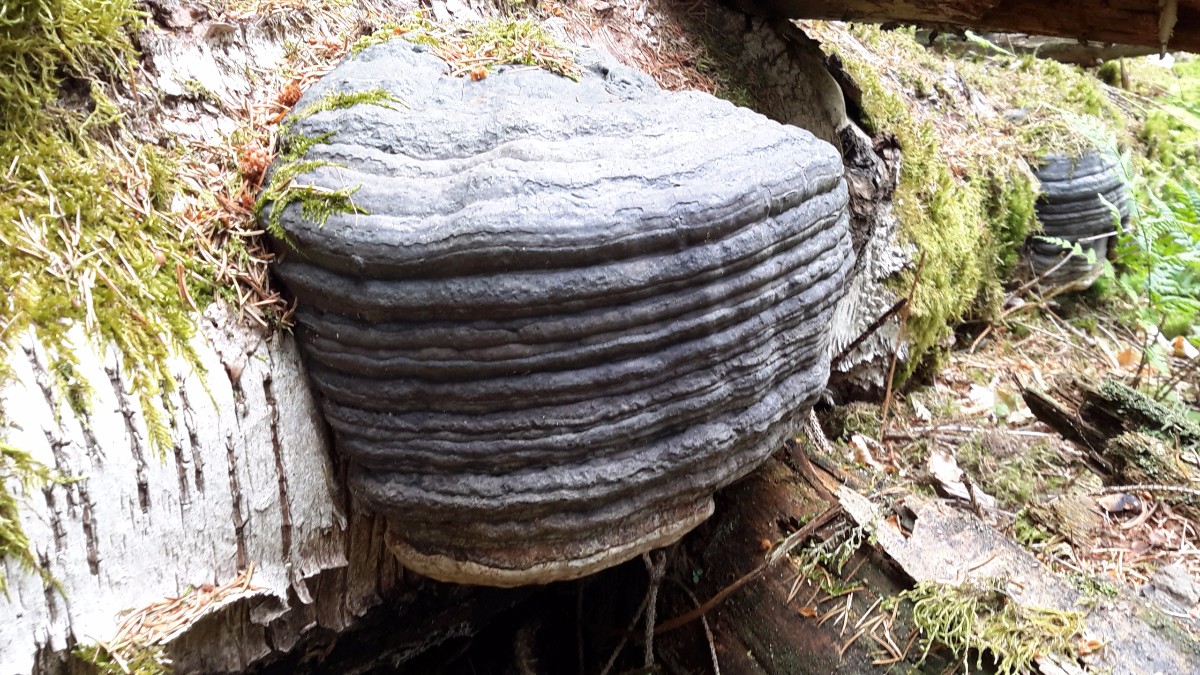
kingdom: Fungi
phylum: Basidiomycota
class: Agaricomycetes
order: Polyporales
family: Polyporaceae
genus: Fomes
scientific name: Fomes fomentarius
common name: tøndersvamp
